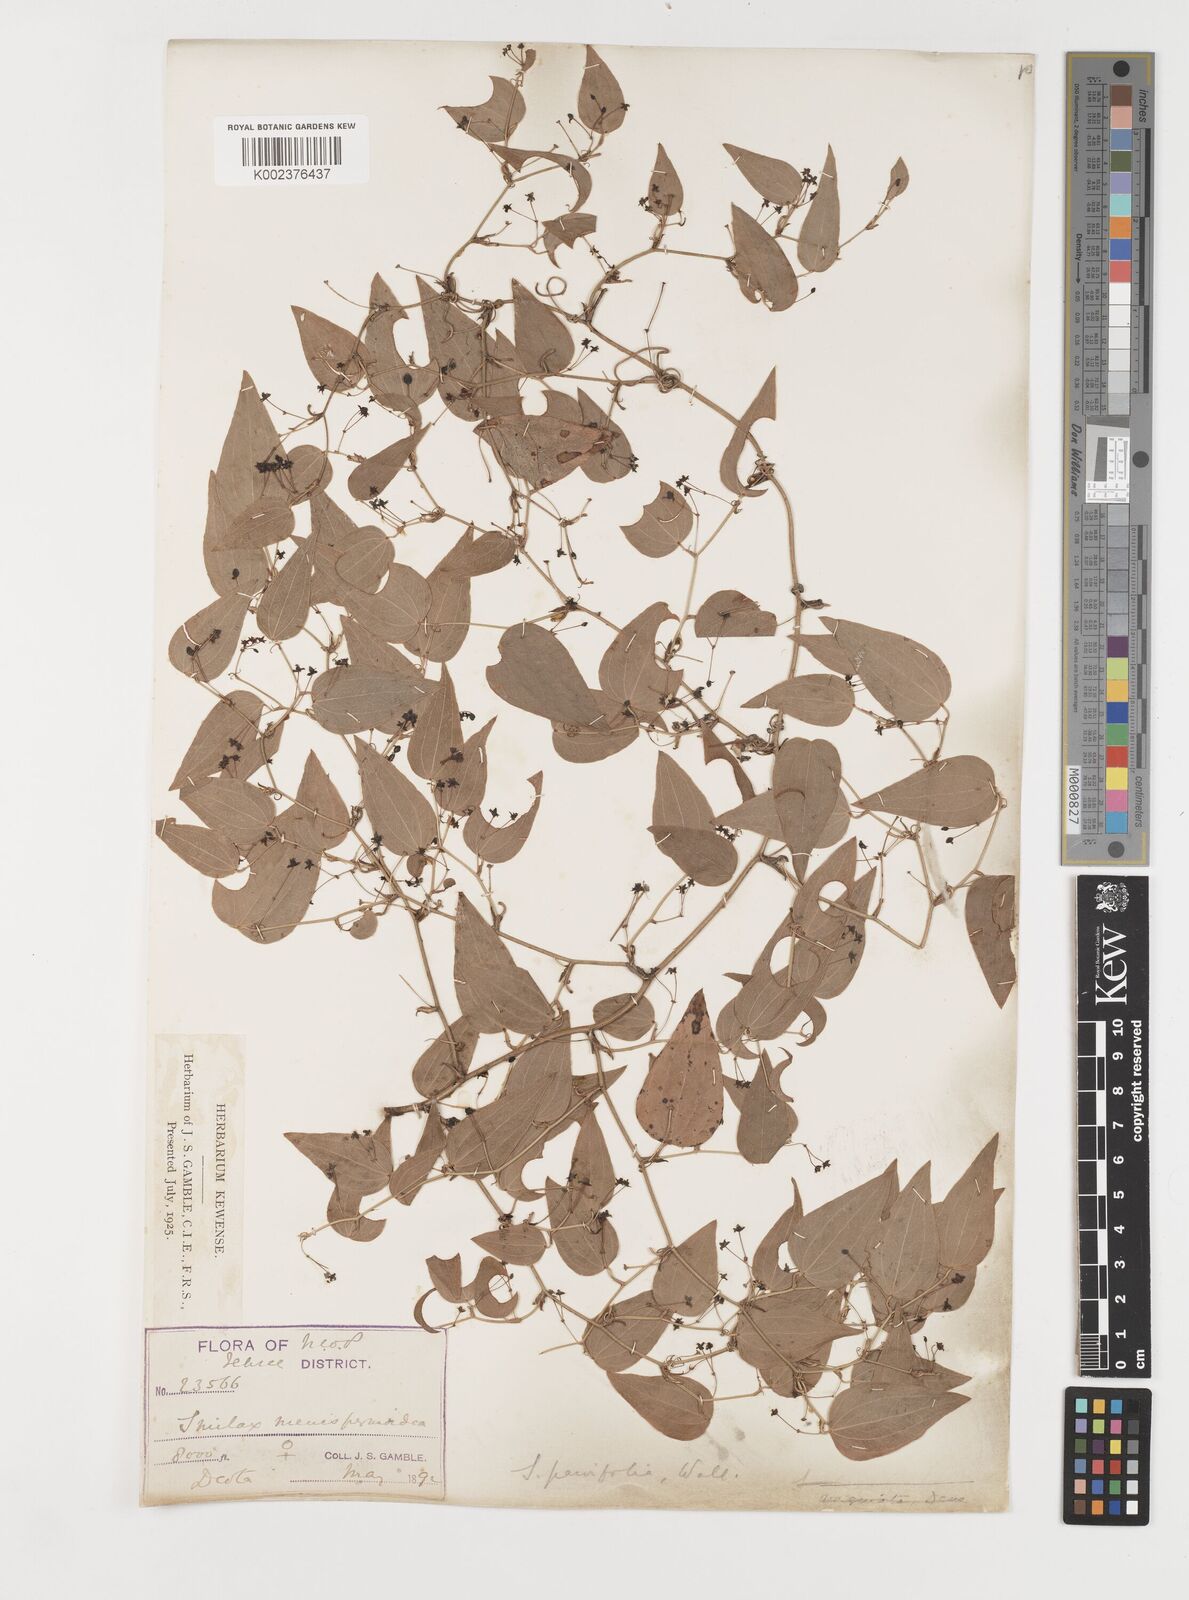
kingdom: Plantae
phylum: Tracheophyta
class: Liliopsida
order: Liliales
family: Smilacaceae
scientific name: Smilacaceae
